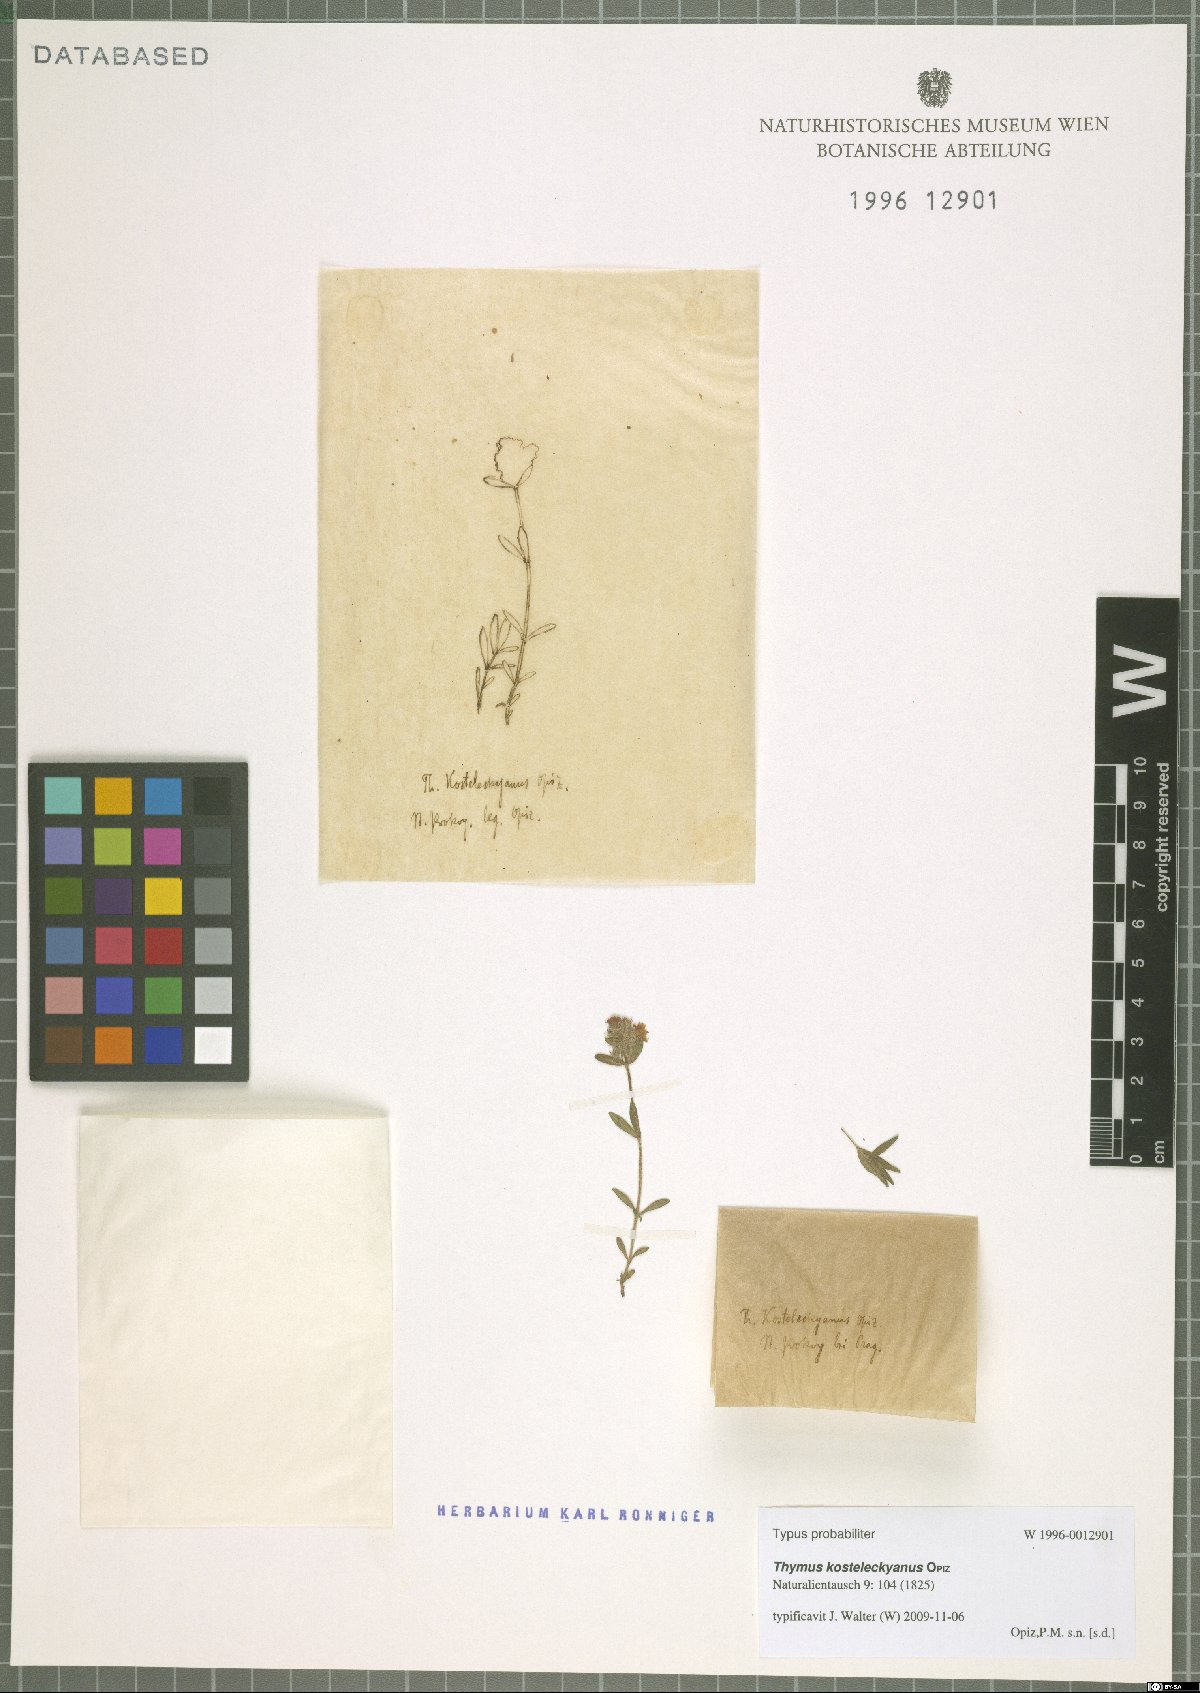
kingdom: Plantae
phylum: Tracheophyta
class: Magnoliopsida
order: Lamiales
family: Lamiaceae
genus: Thymus
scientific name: Thymus kosteleckyanus
